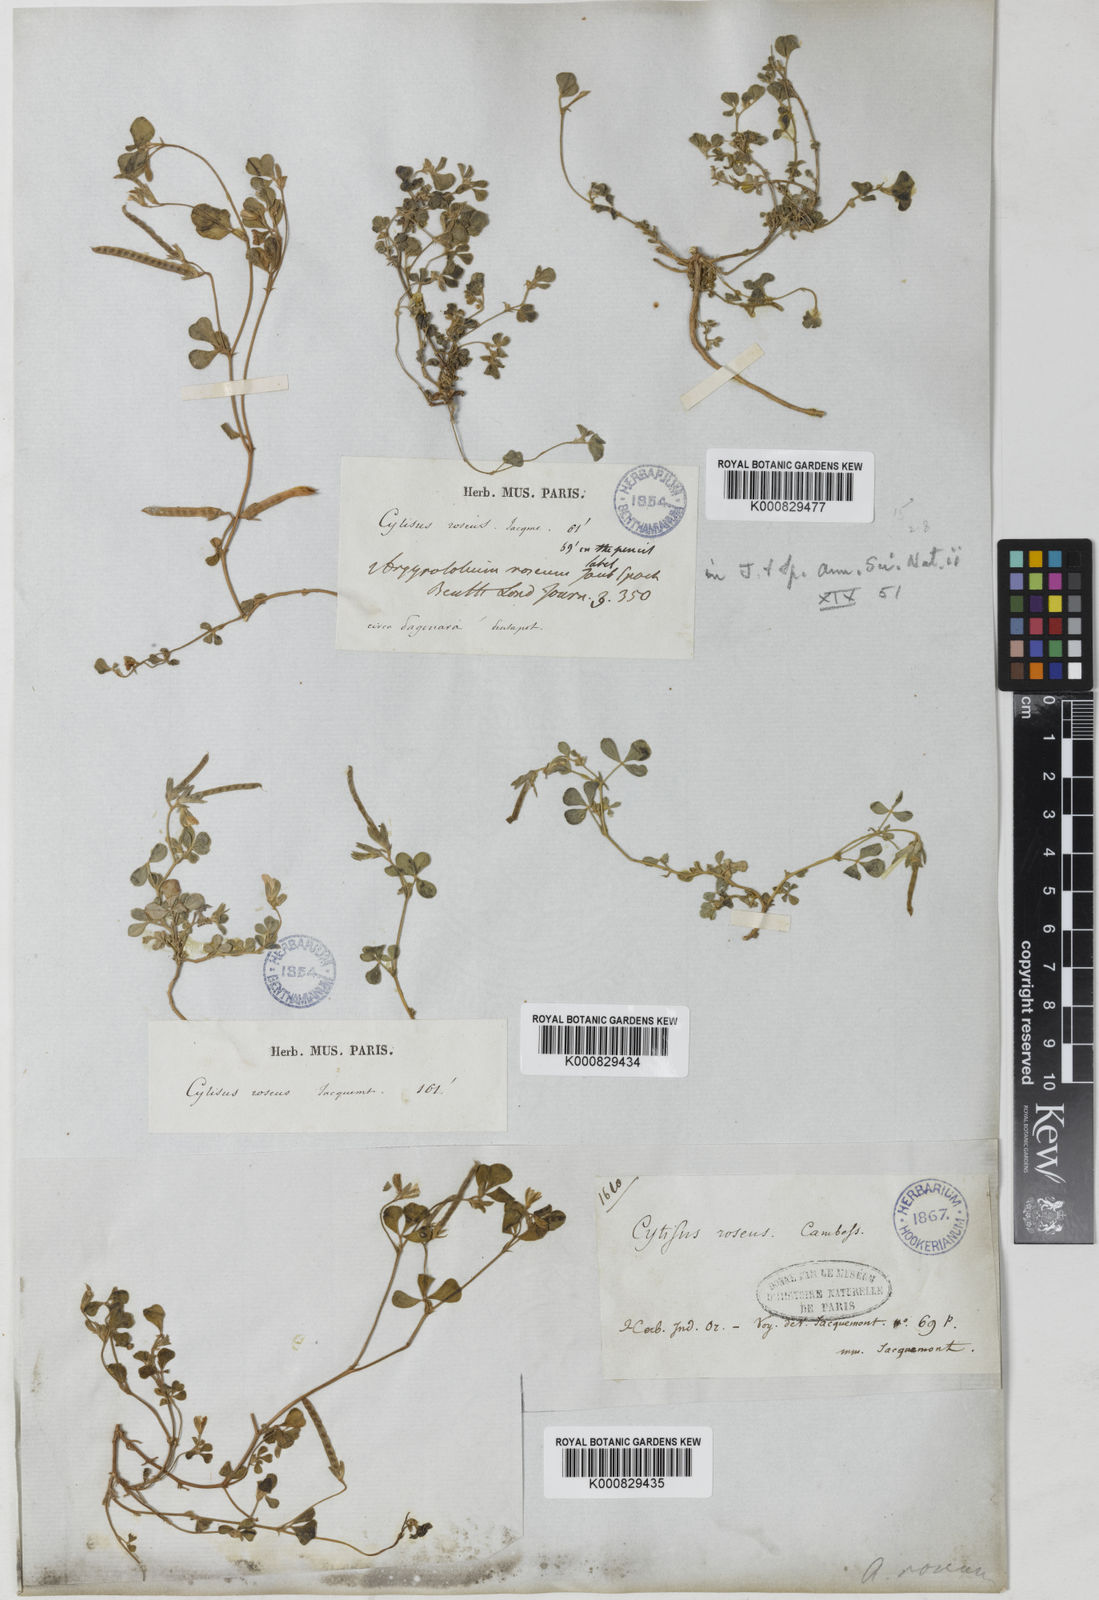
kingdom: Plantae
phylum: Tracheophyta
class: Magnoliopsida
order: Fabales
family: Fabaceae
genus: Argyrolobium
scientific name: Argyrolobium roseum
